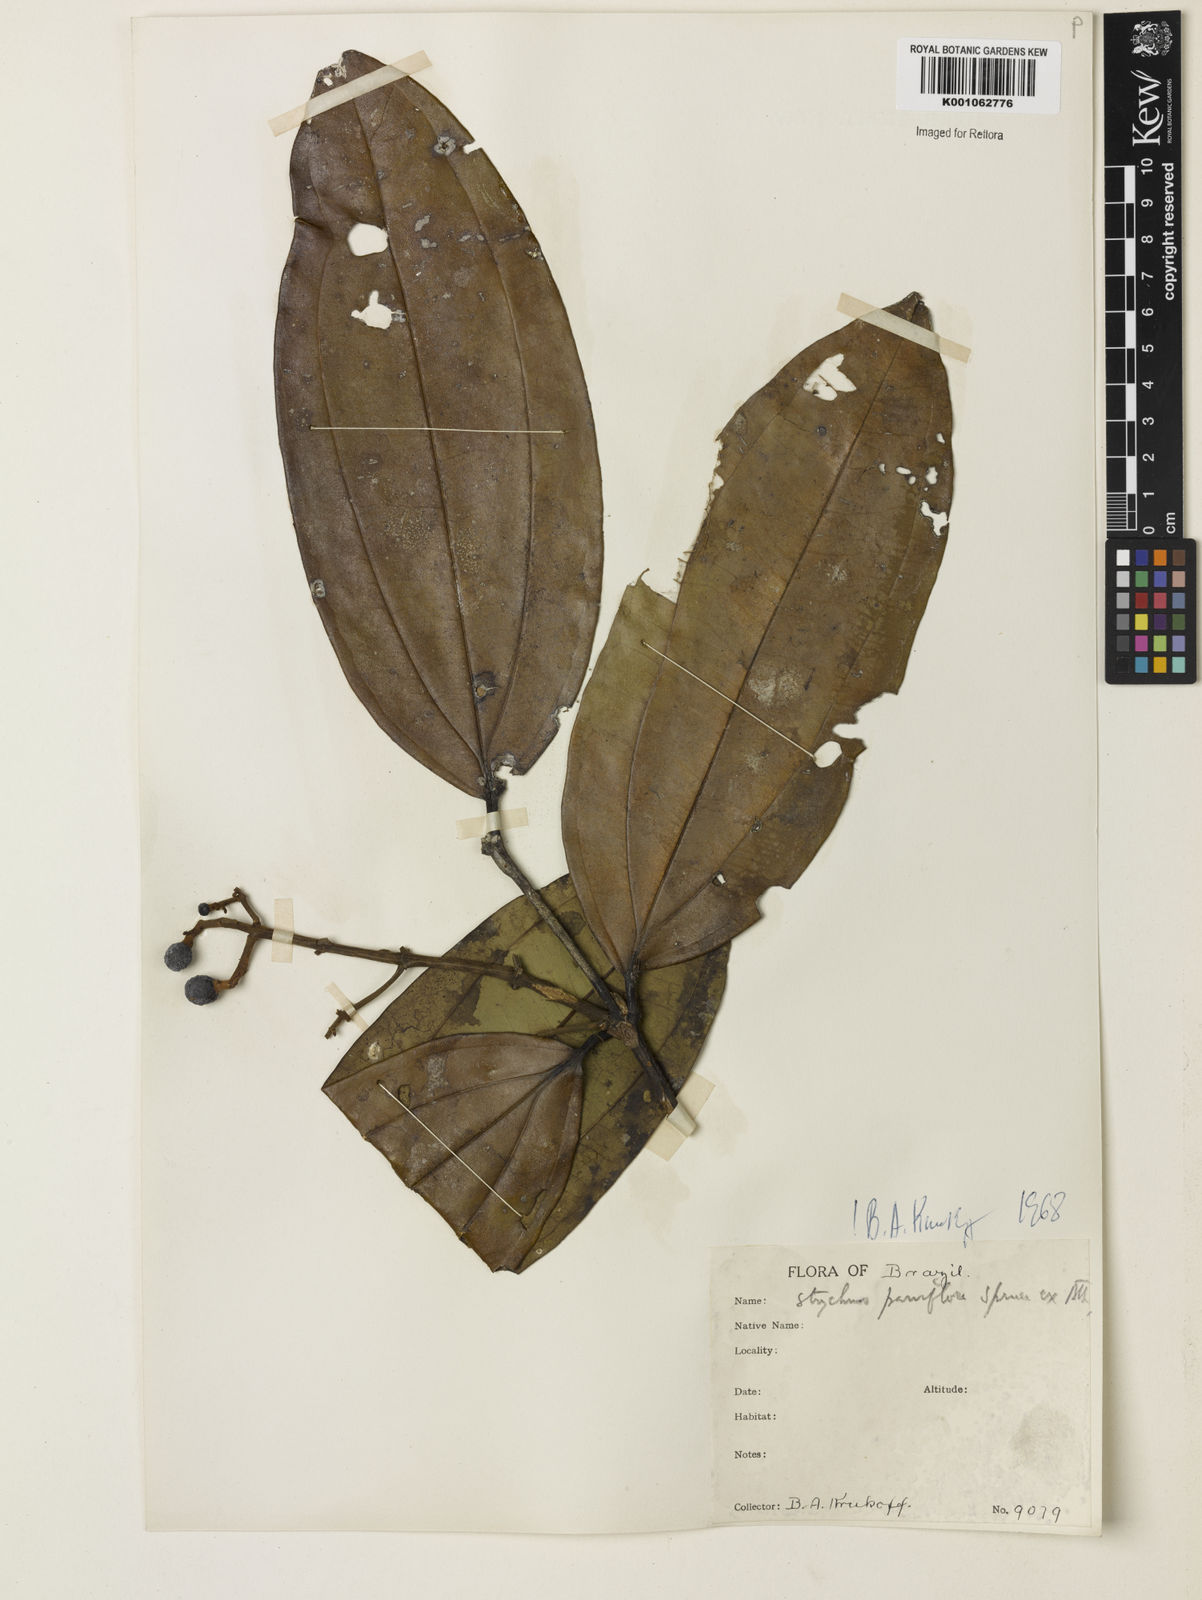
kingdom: Plantae
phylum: Tracheophyta
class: Magnoliopsida
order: Gentianales
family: Loganiaceae
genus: Strychnos
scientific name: Strychnos parviflora
